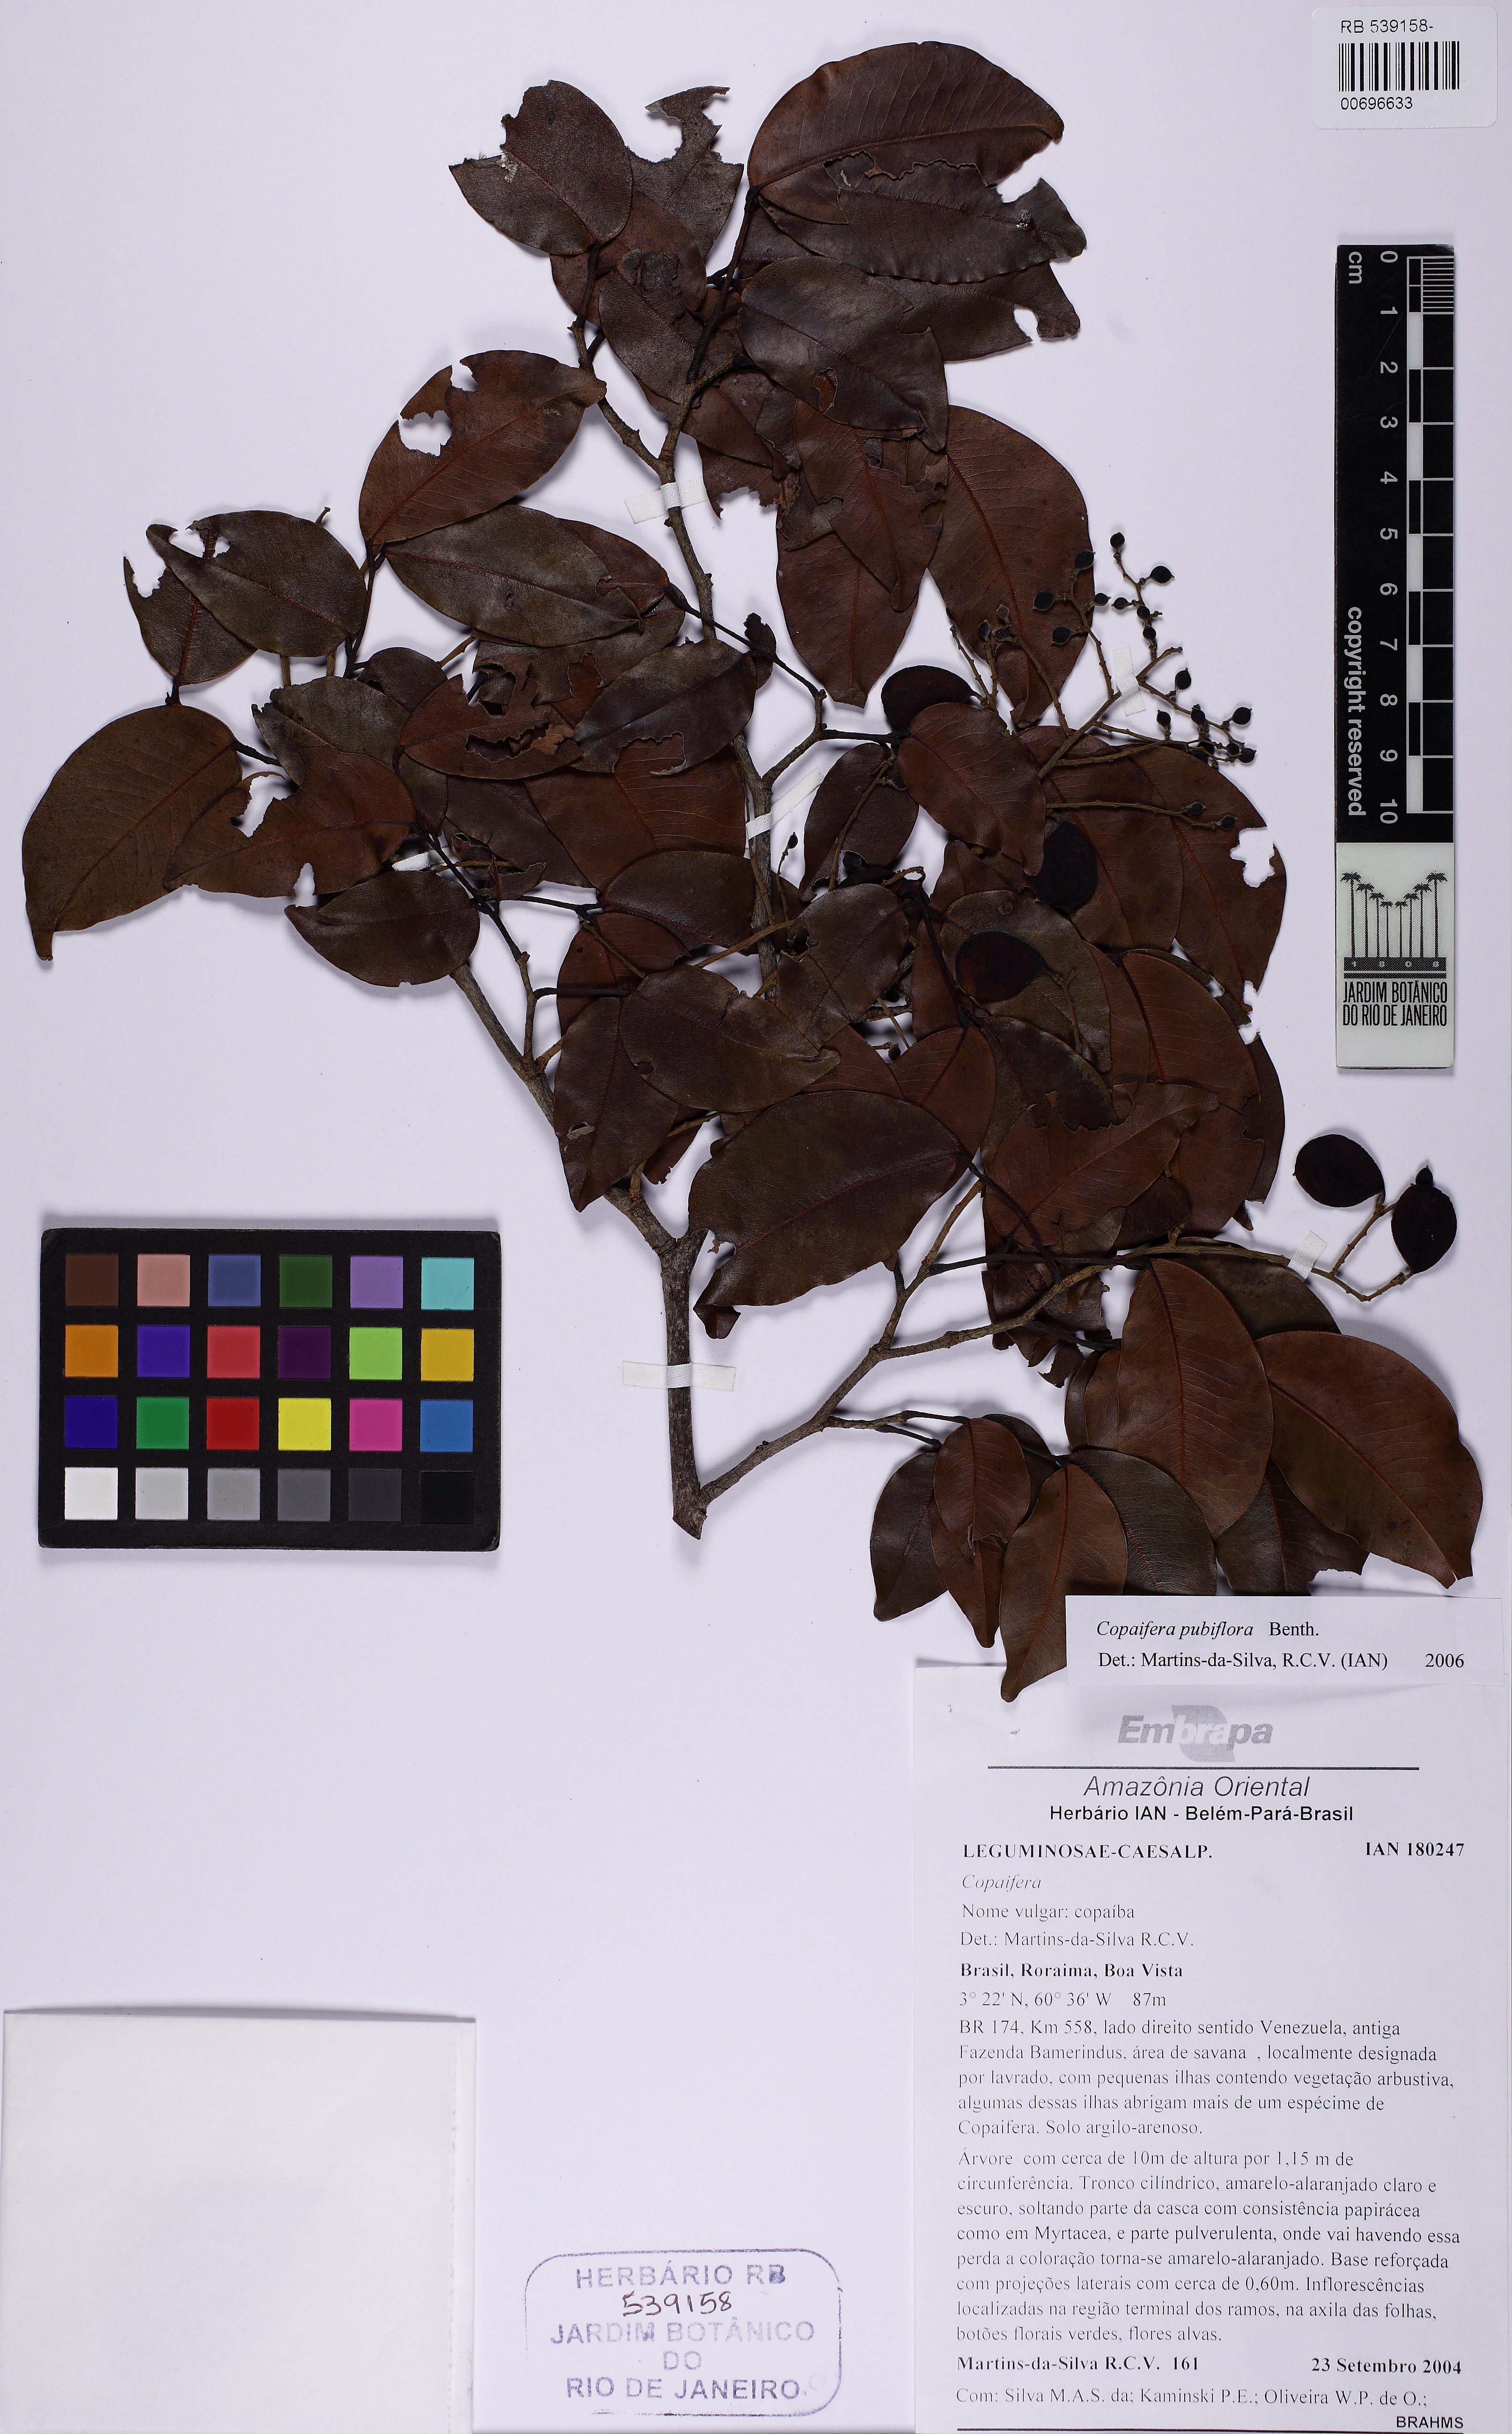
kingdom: Plantae
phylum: Tracheophyta
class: Magnoliopsida
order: Fabales
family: Fabaceae
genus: Copaifera
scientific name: Copaifera pubiflora
